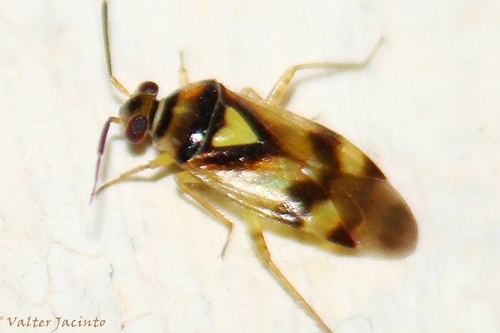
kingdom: Animalia
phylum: Arthropoda
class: Insecta
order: Hemiptera
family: Miridae
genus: Orthops
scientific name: Orthops kalmii
